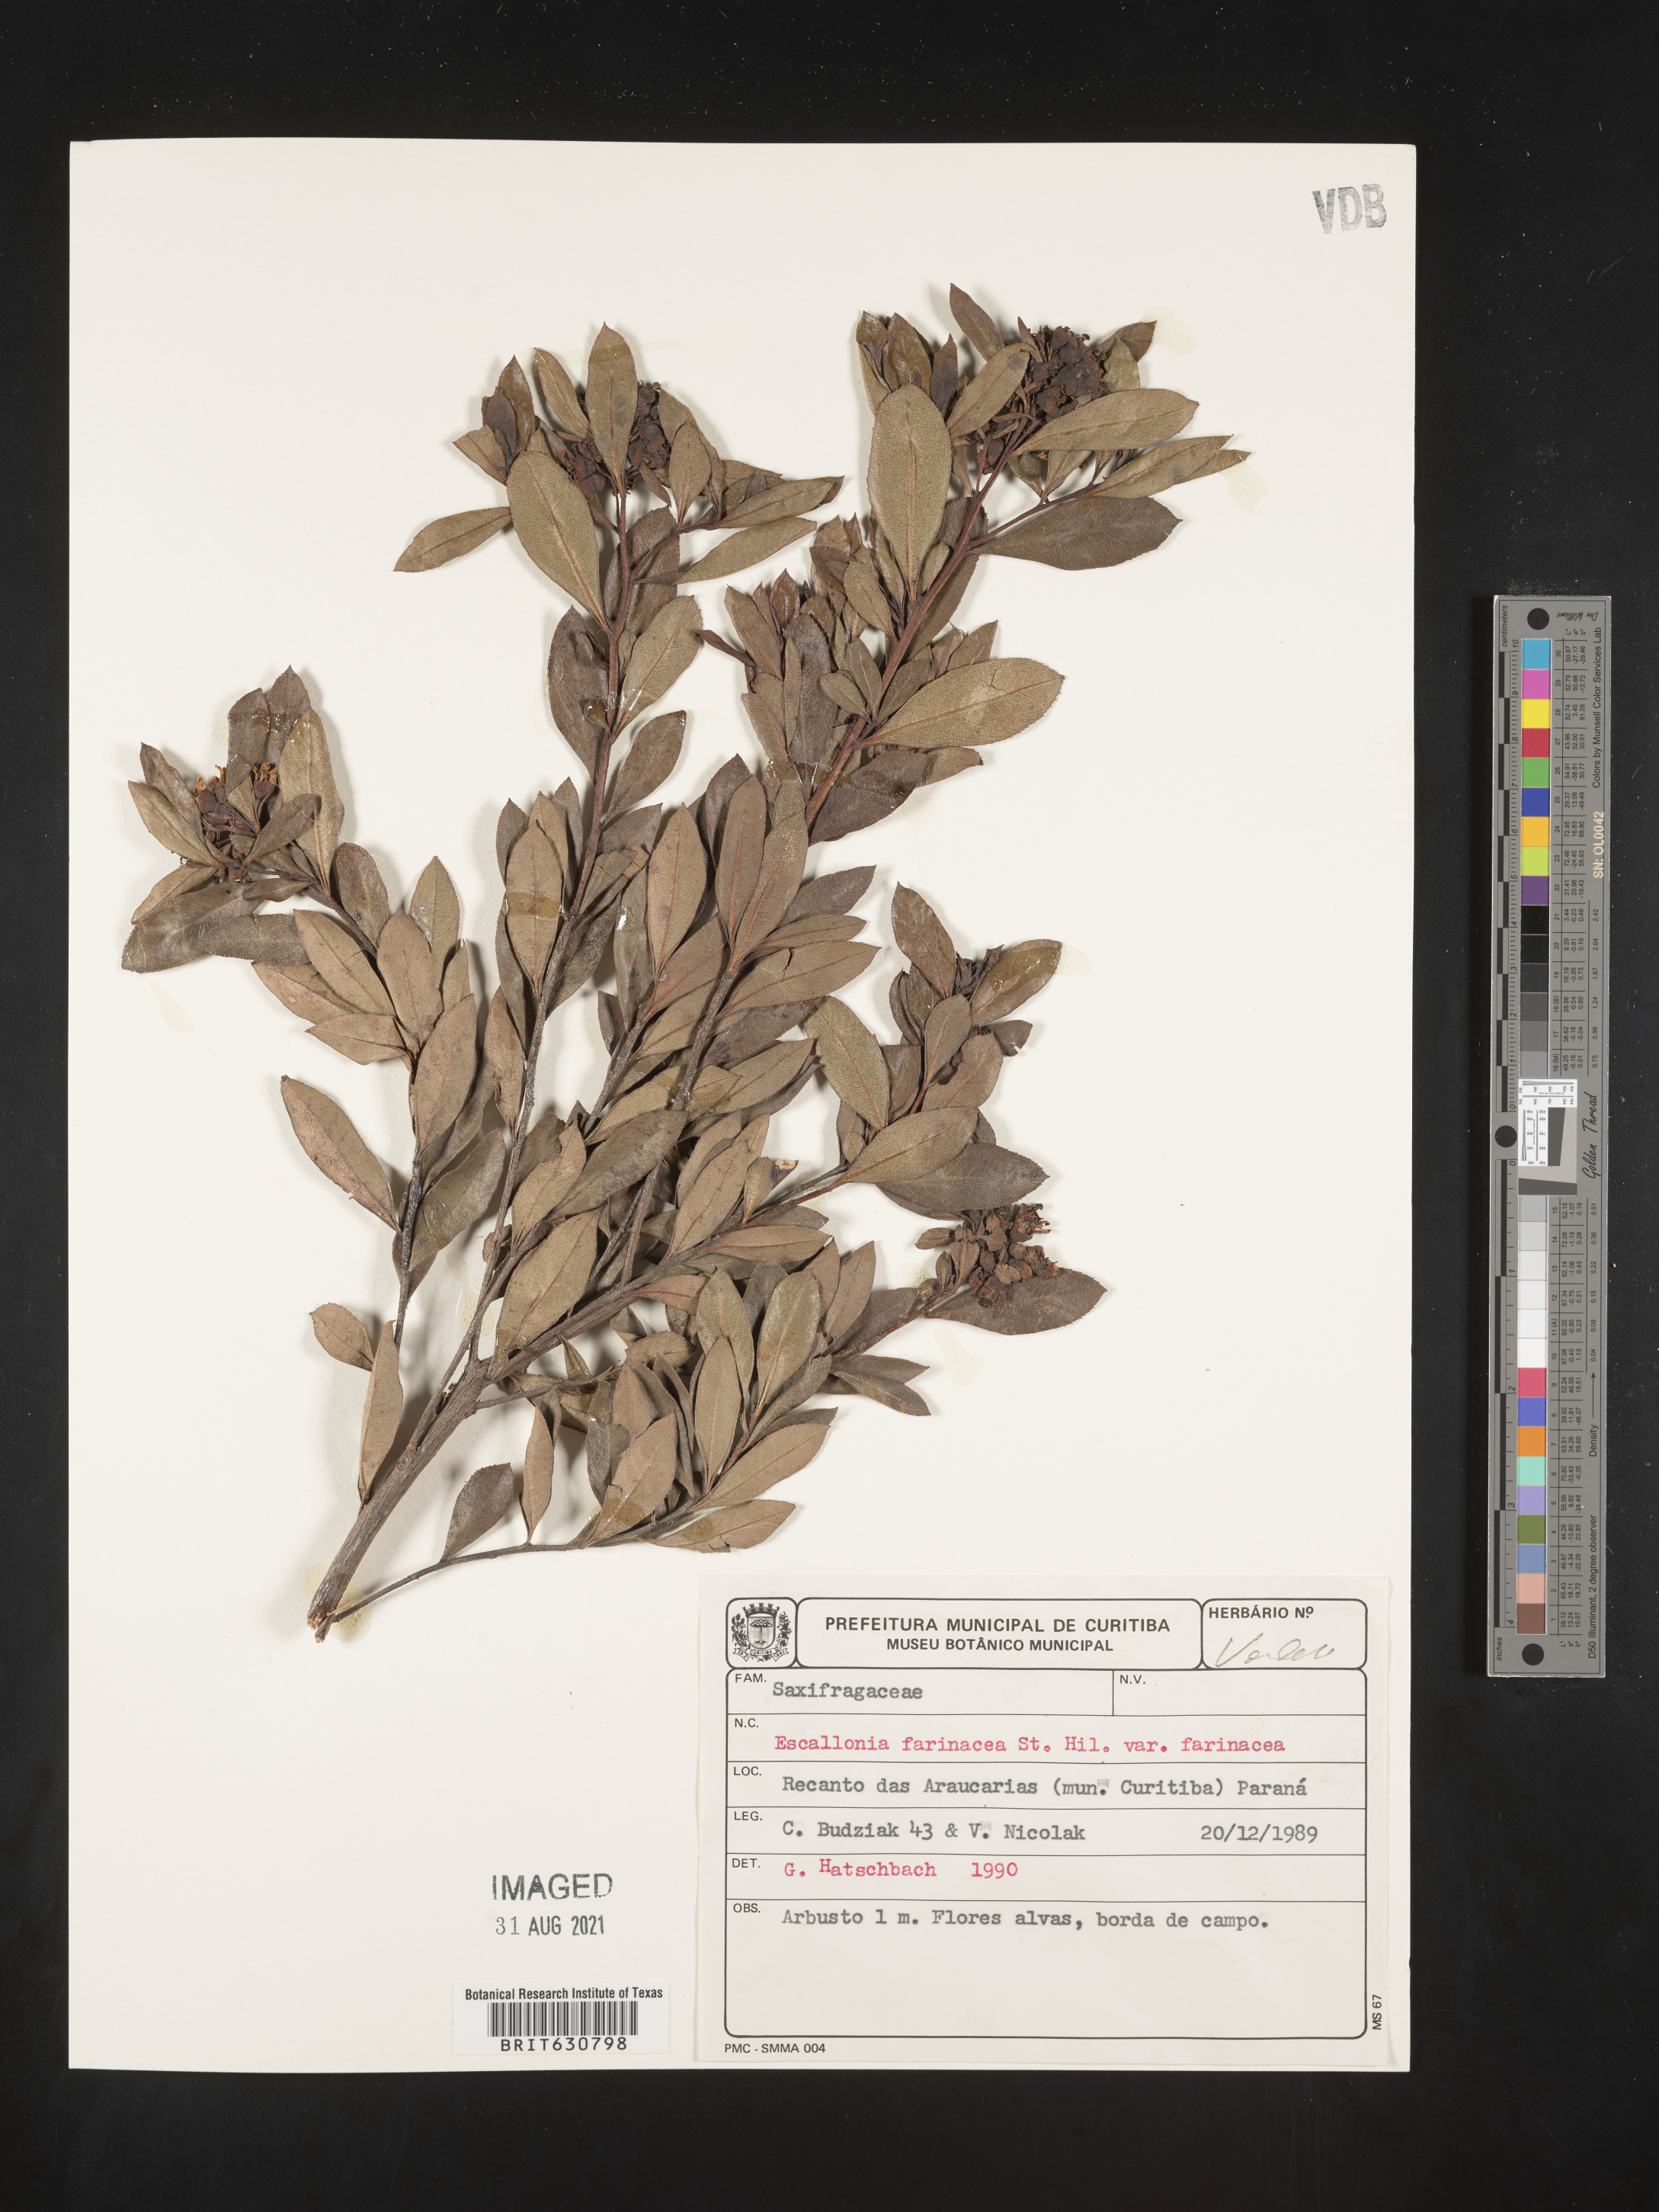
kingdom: Plantae
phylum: Tracheophyta
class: Magnoliopsida
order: Escalloniales
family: Escalloniaceae
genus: Escallonia
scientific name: Escallonia
